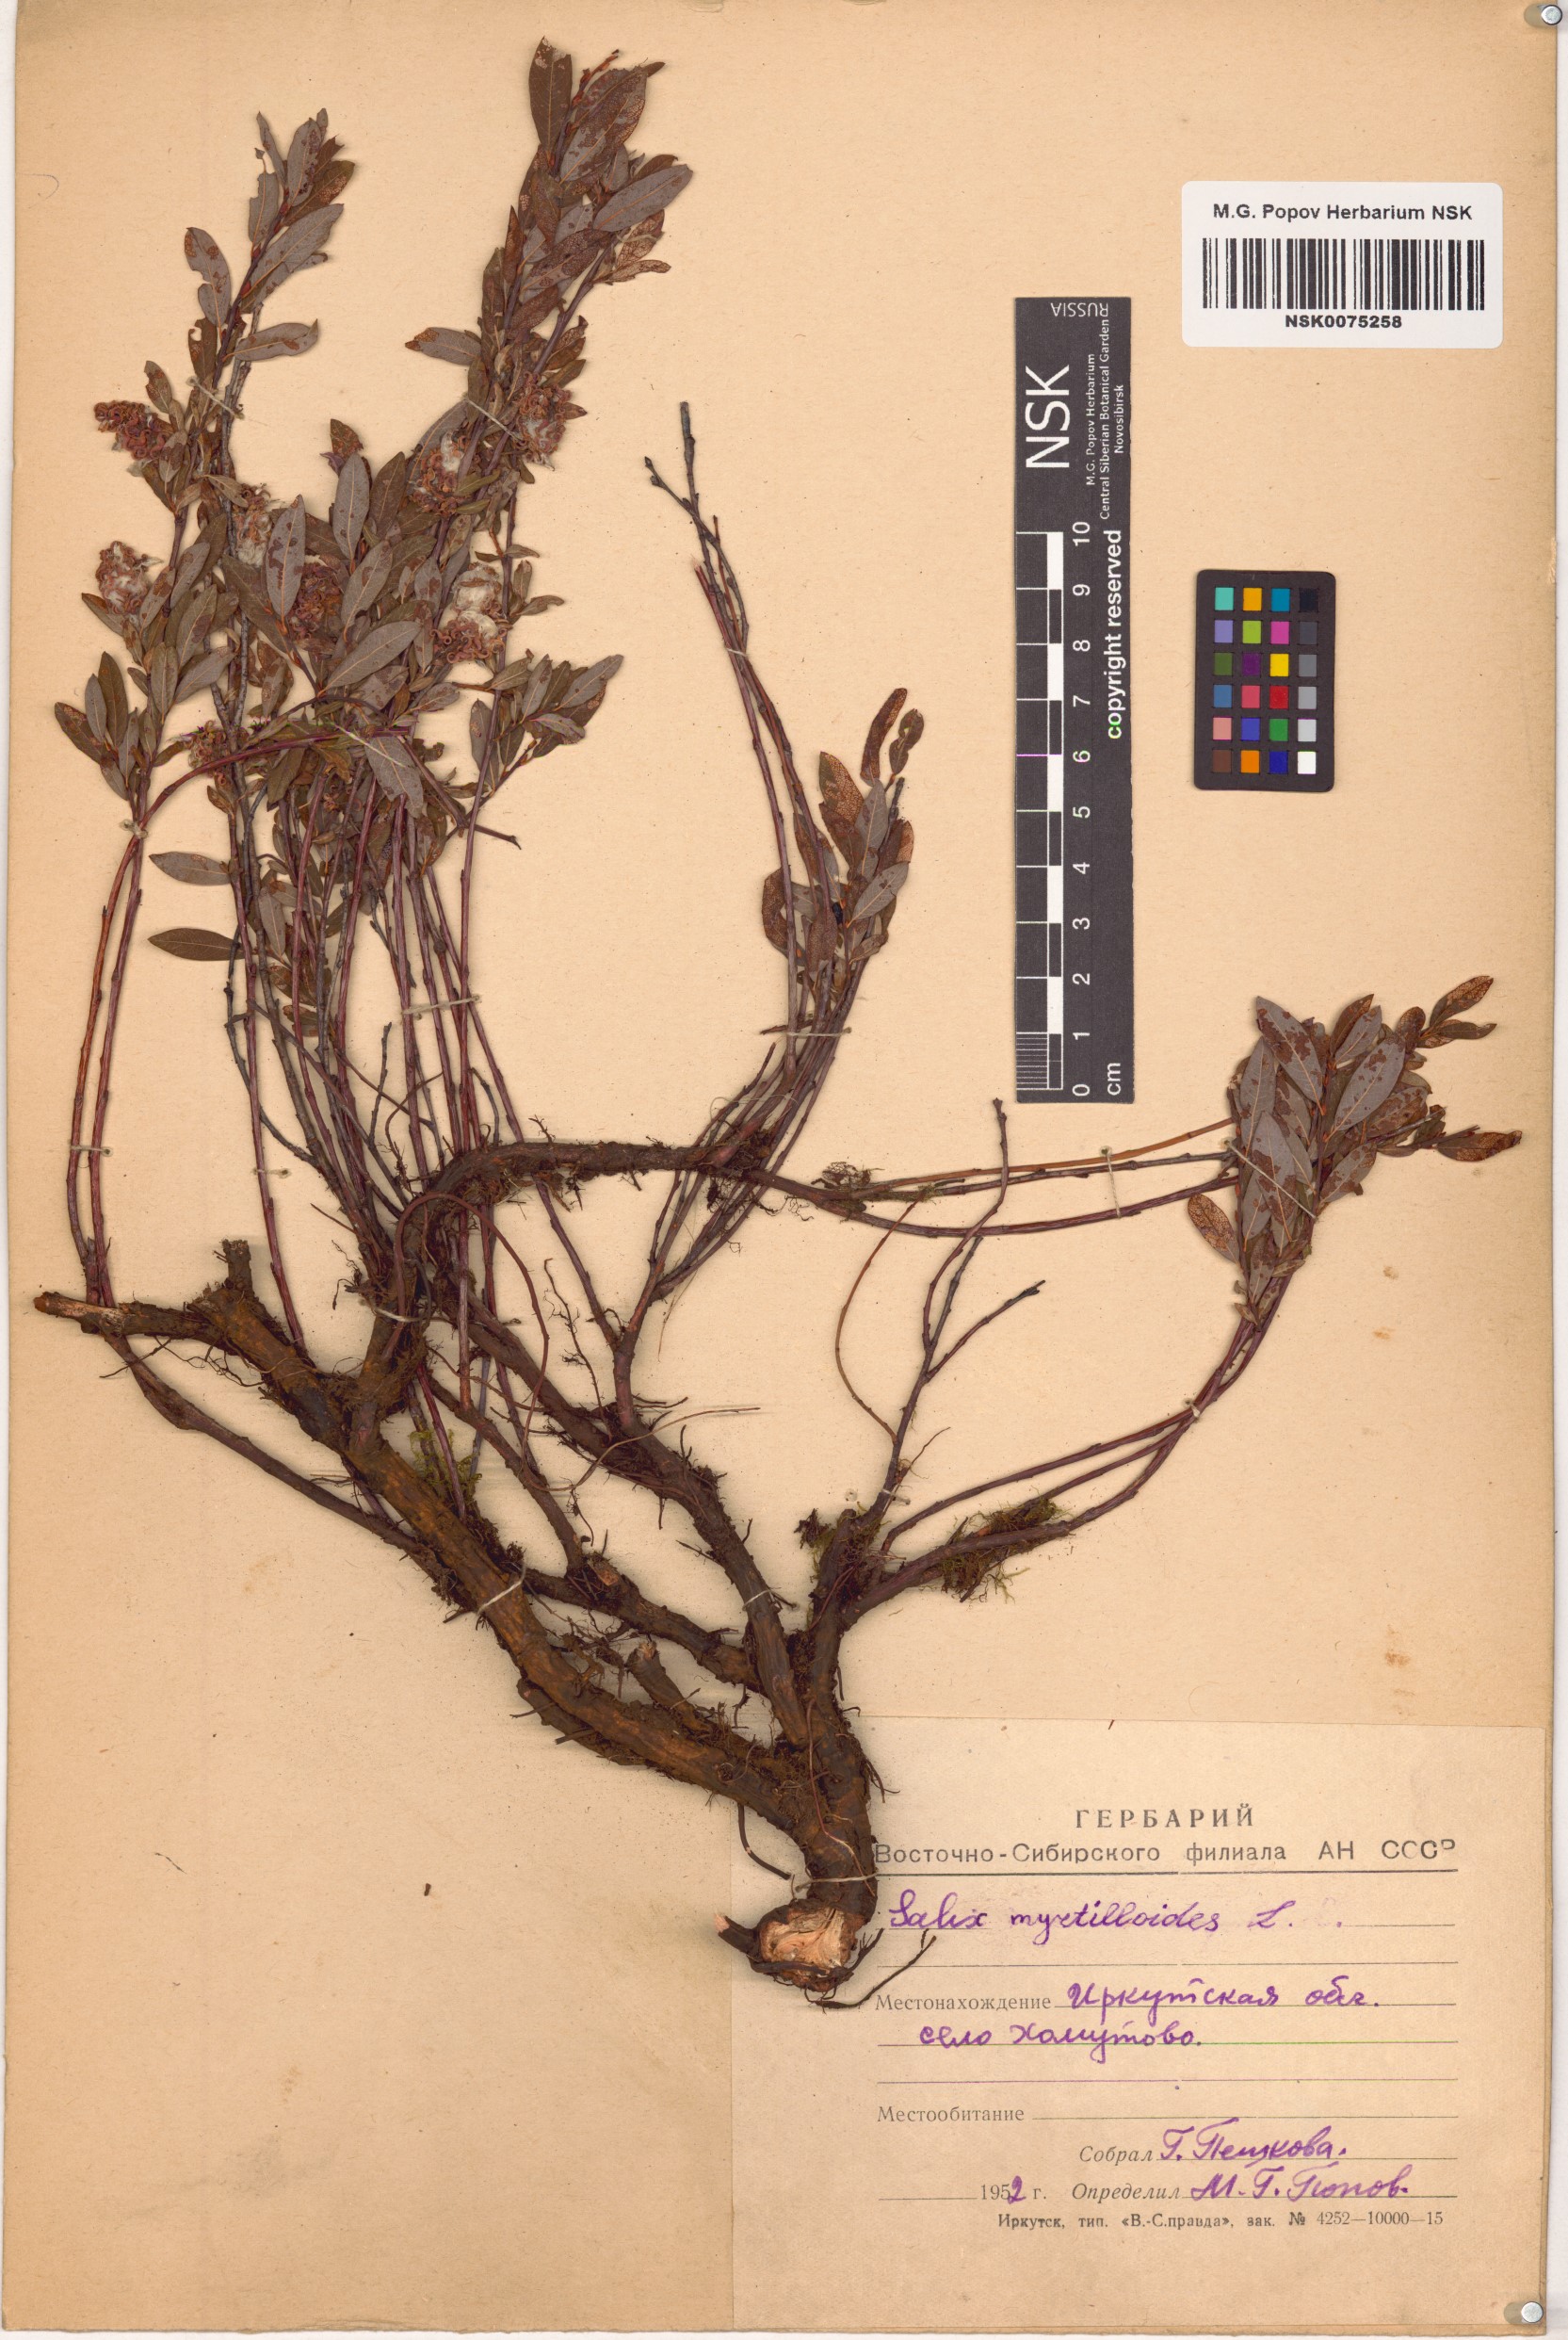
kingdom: Plantae
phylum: Tracheophyta
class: Magnoliopsida
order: Malpighiales
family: Salicaceae
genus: Salix
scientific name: Salix myrtilloides
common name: Myrtle-leaved willow
